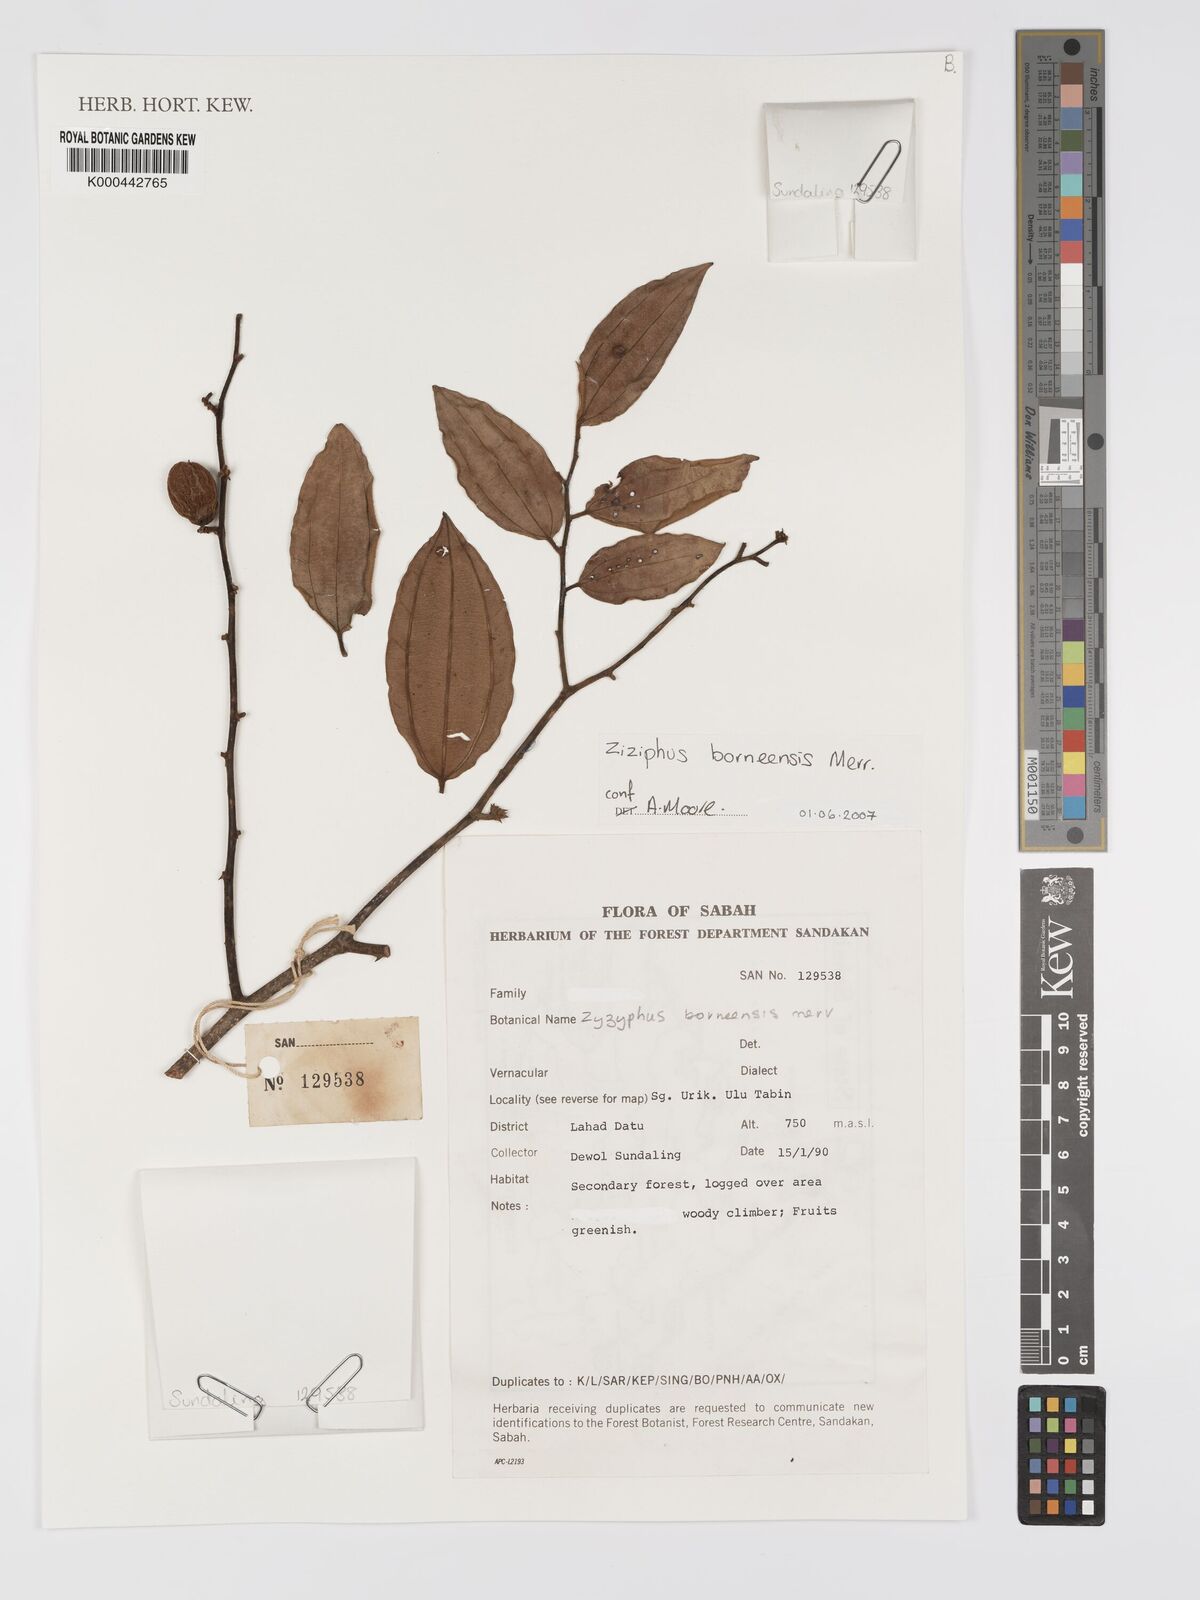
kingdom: Plantae
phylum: Tracheophyta
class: Magnoliopsida
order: Rosales
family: Rhamnaceae
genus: Ziziphus
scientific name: Ziziphus borneensis
